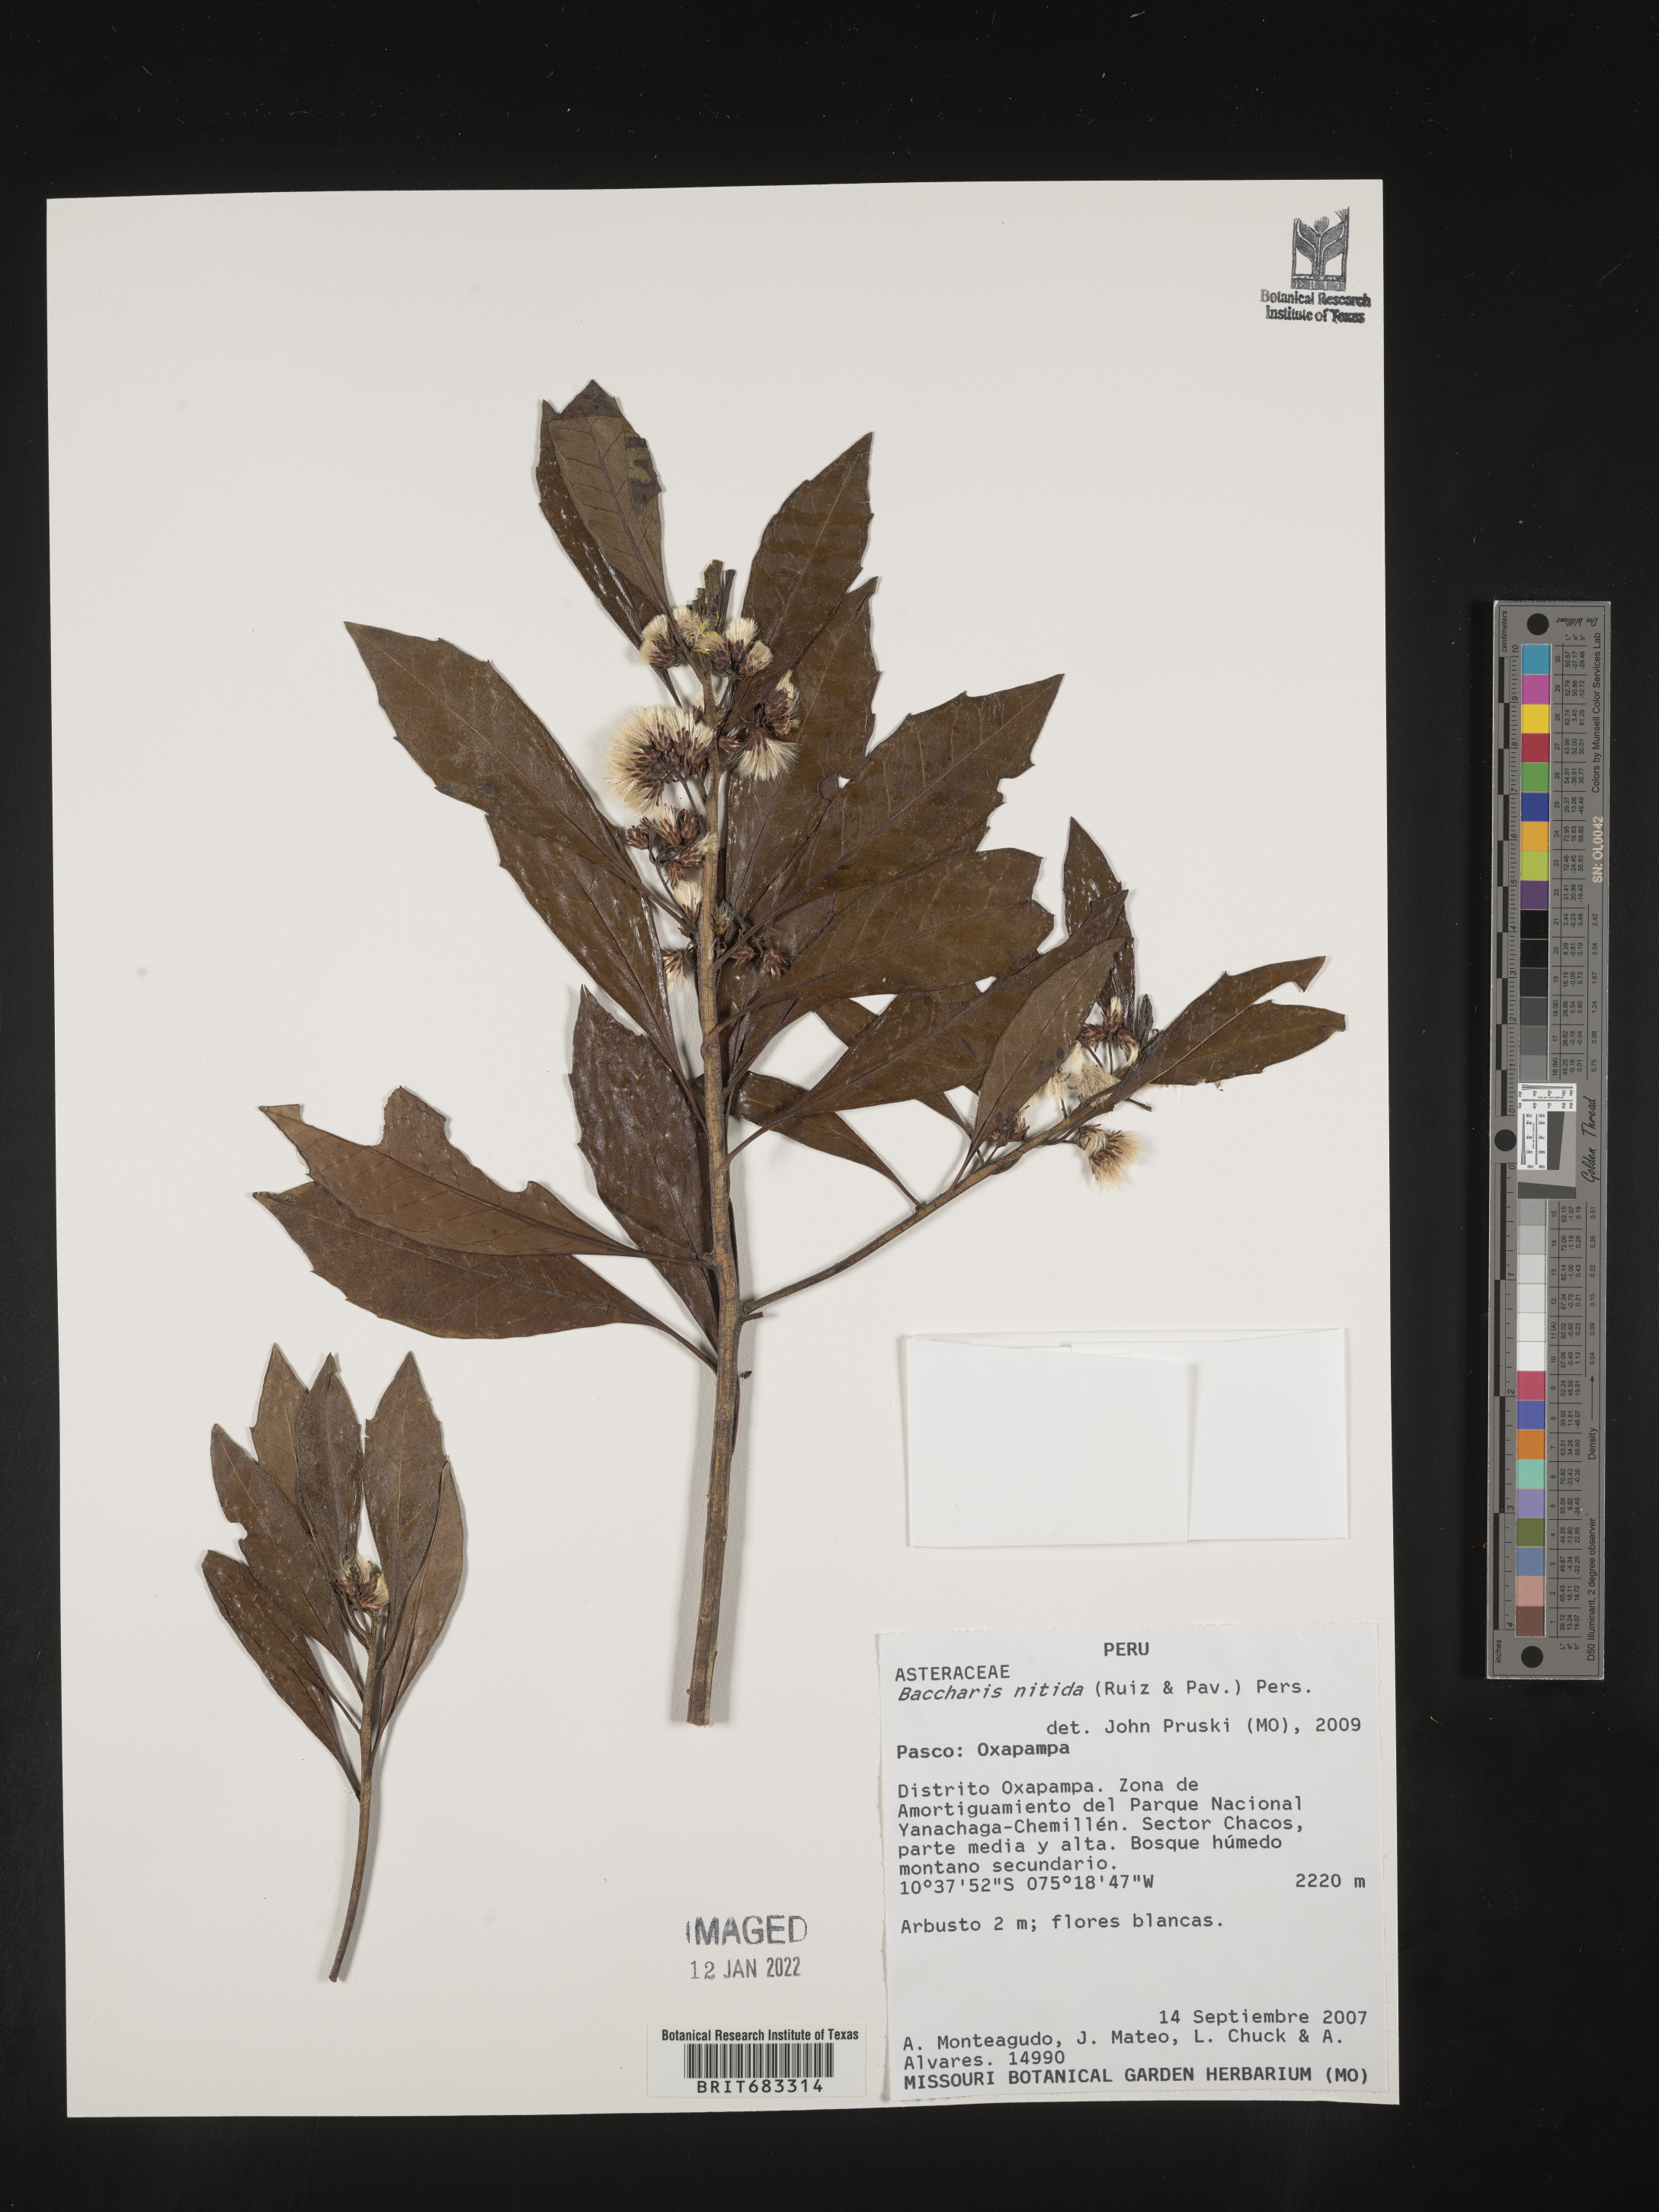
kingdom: Plantae
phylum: Tracheophyta
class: Magnoliopsida
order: Asterales
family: Asteraceae
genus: Baccharis
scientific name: Baccharis
